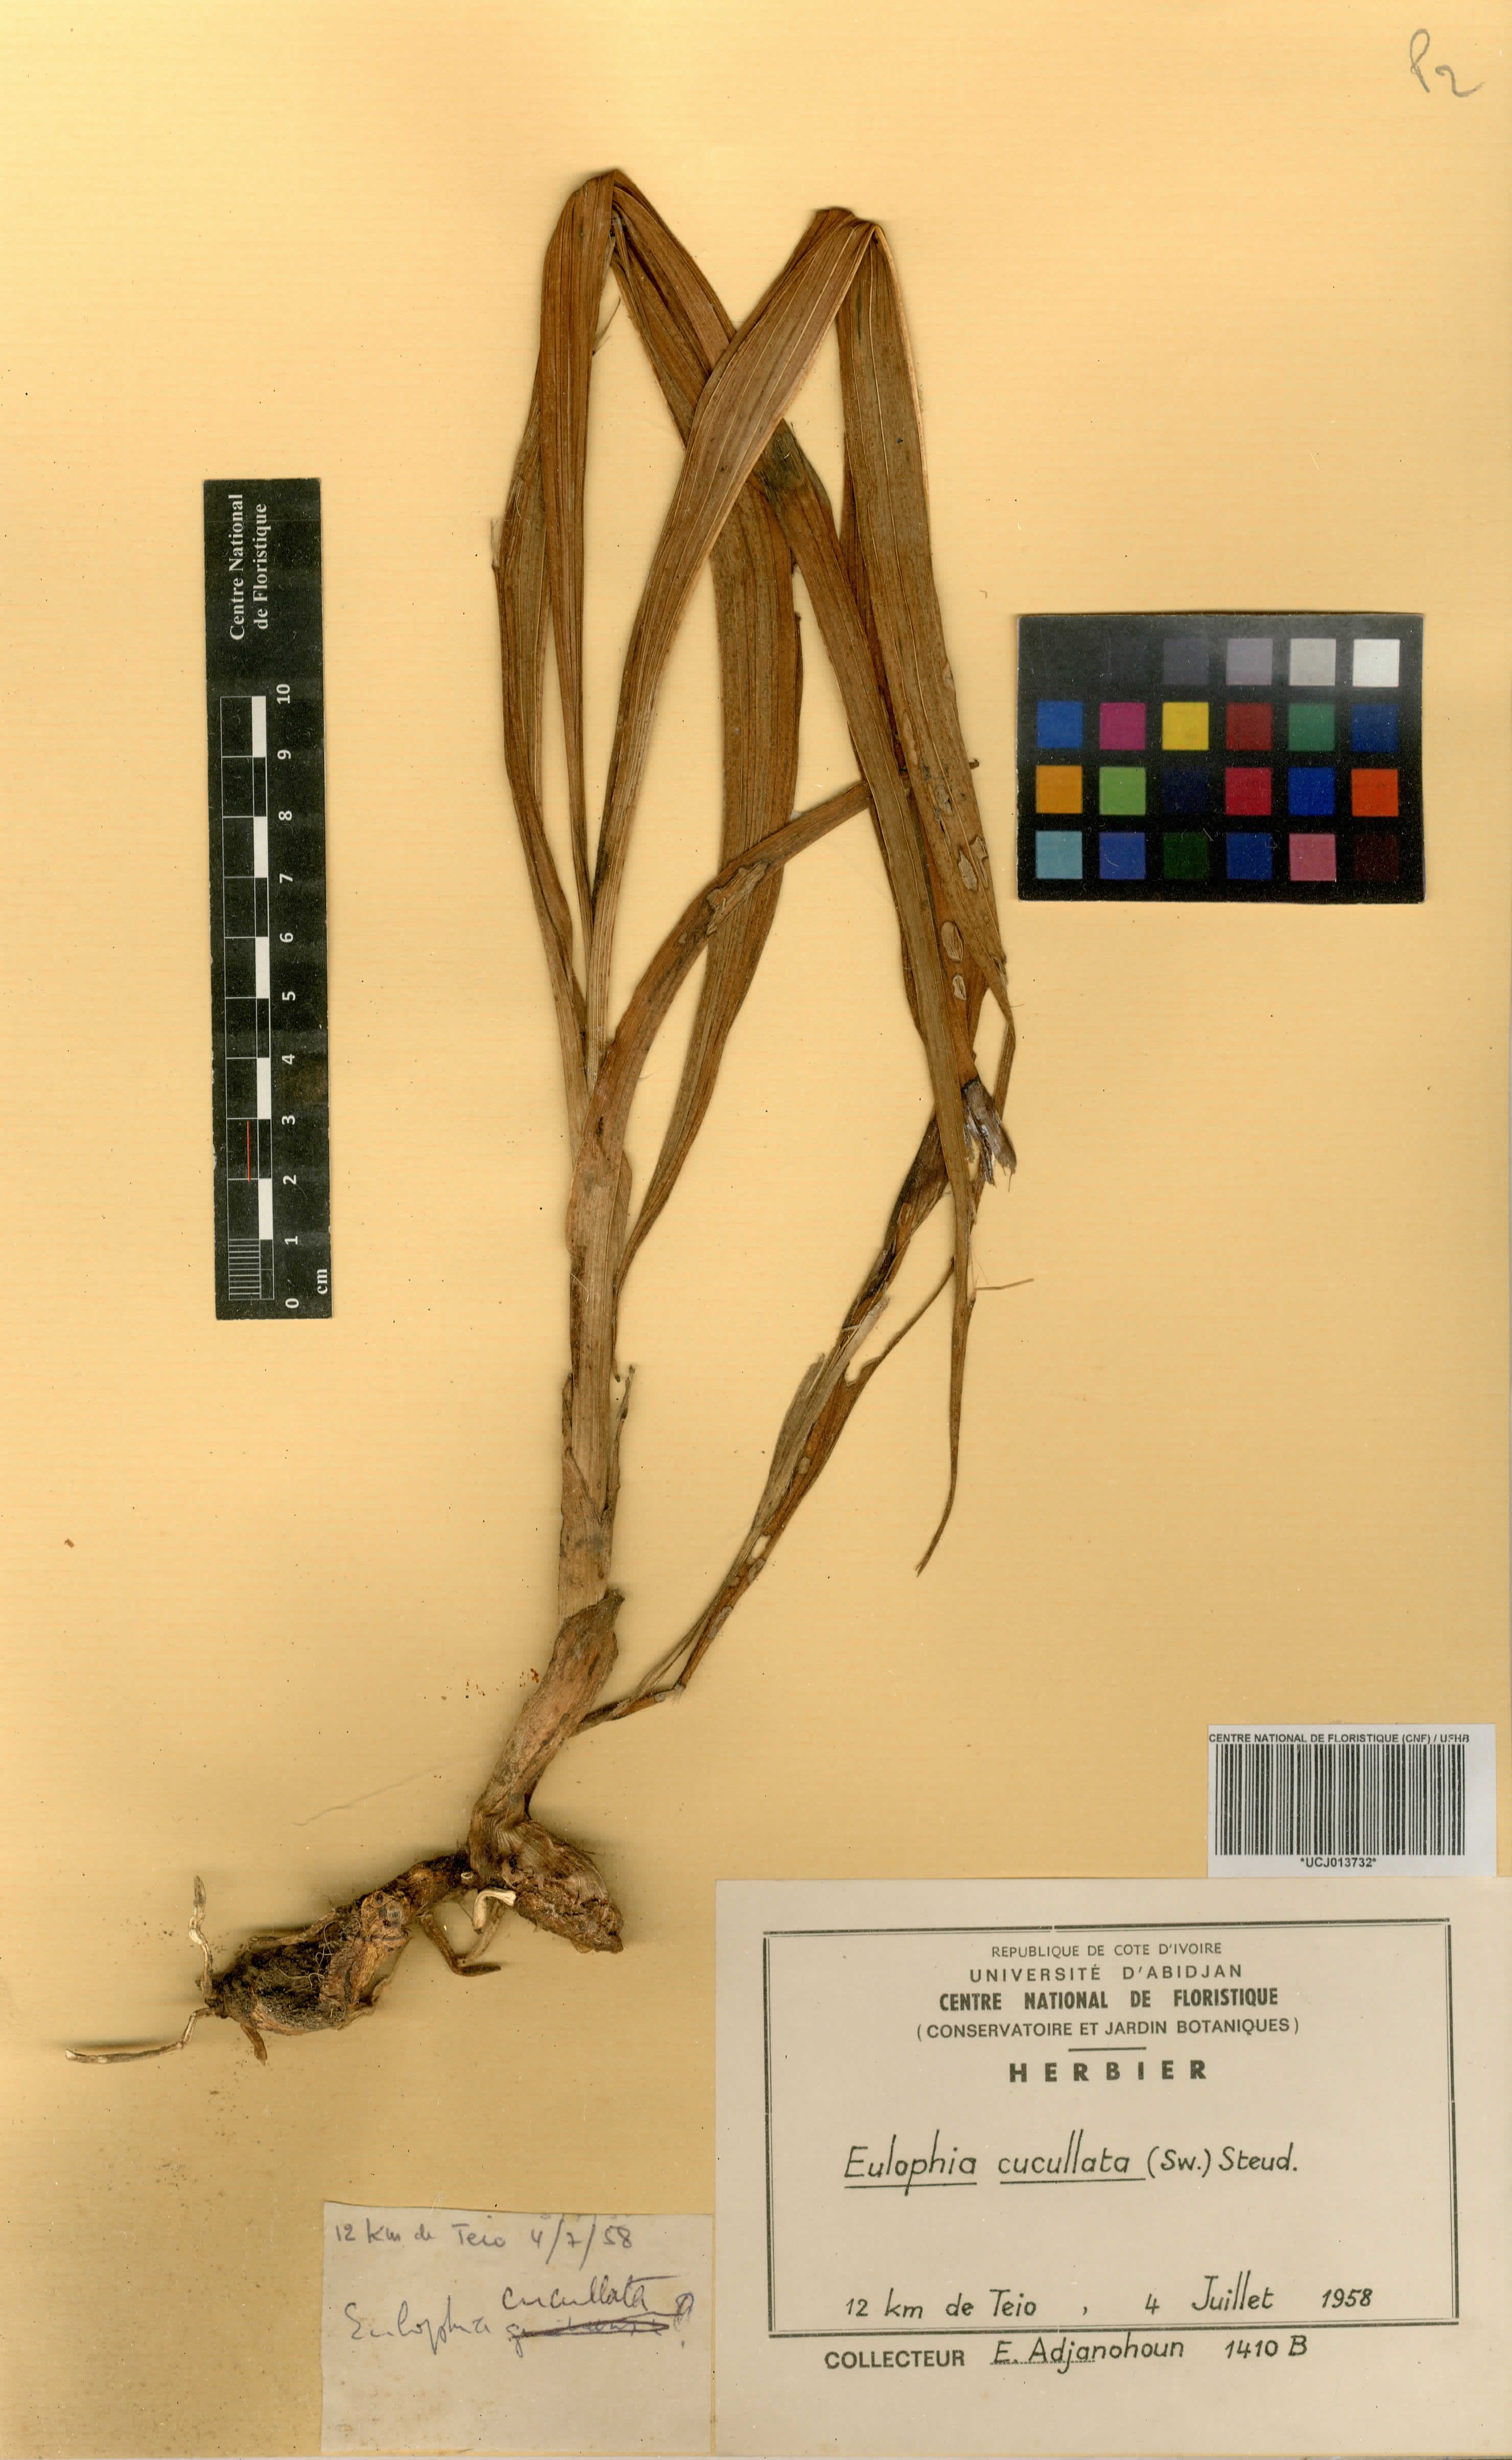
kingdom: Plantae
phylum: Tracheophyta
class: Liliopsida
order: Asparagales
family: Orchidaceae
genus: Eulophia
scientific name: Eulophia cucullata
